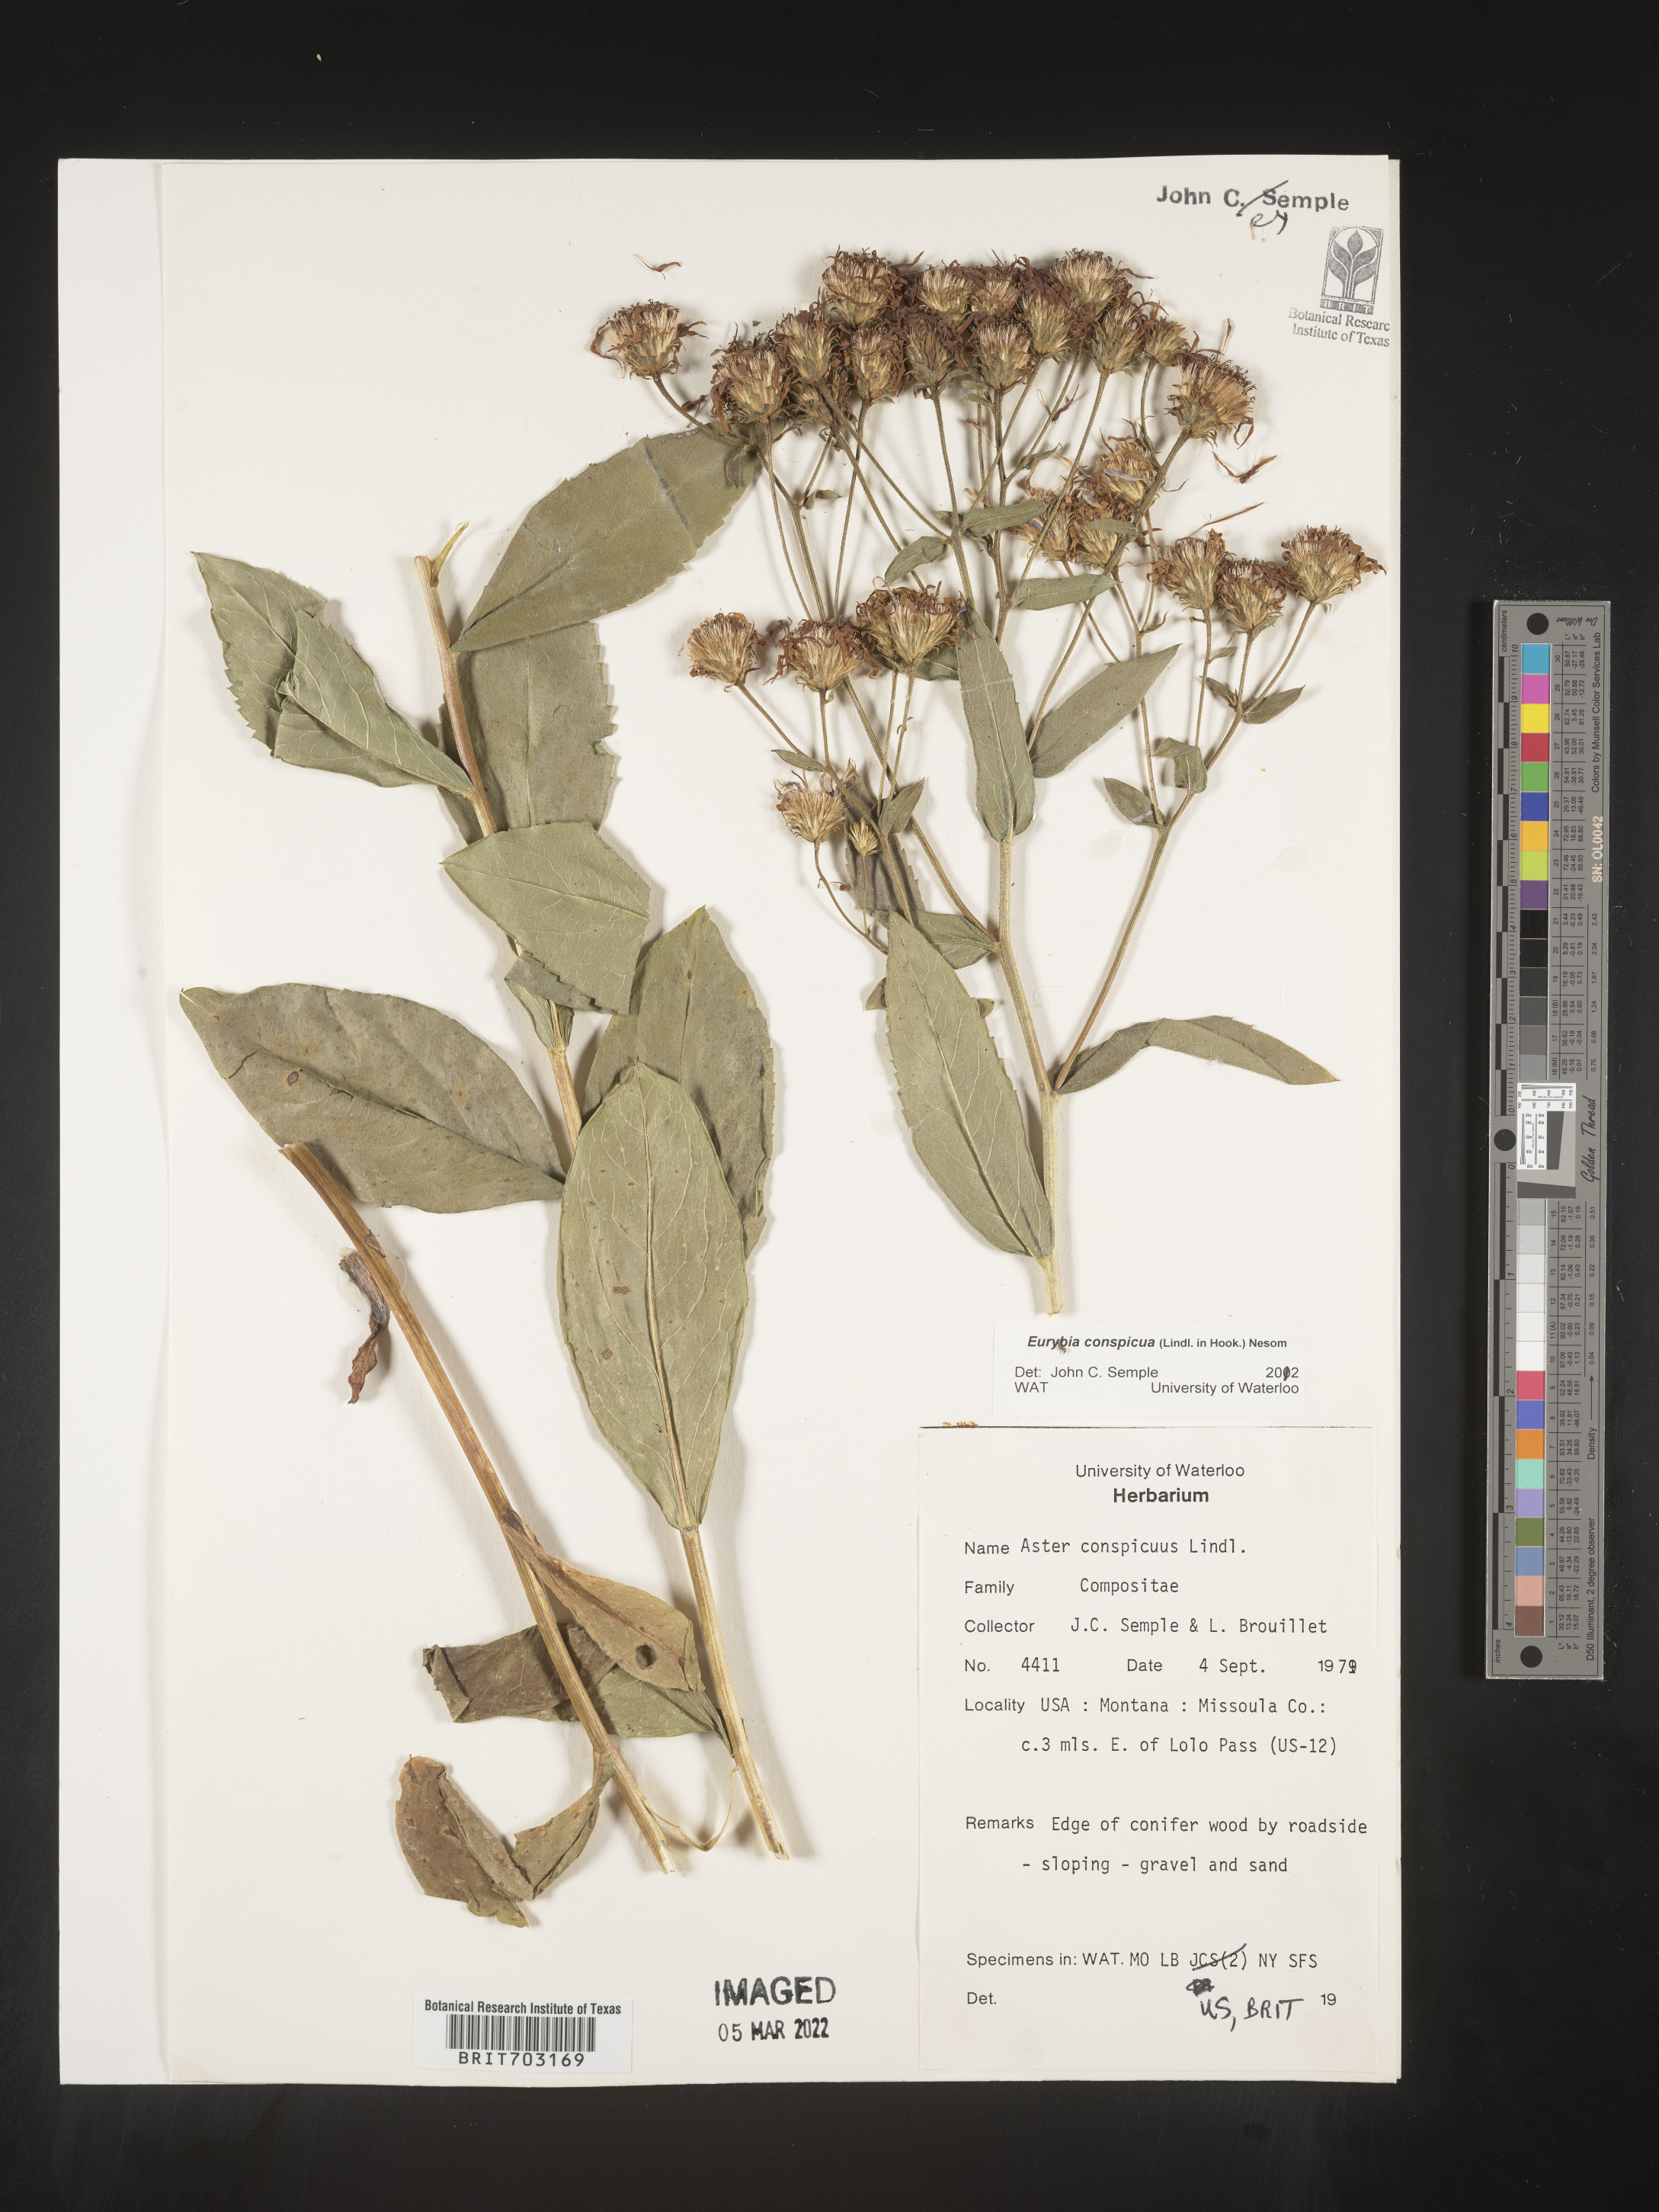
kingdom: Plantae
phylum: Tracheophyta
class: Magnoliopsida
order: Asterales
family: Asteraceae
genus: Eurybia
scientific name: Eurybia conspicua
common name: Showy aster
